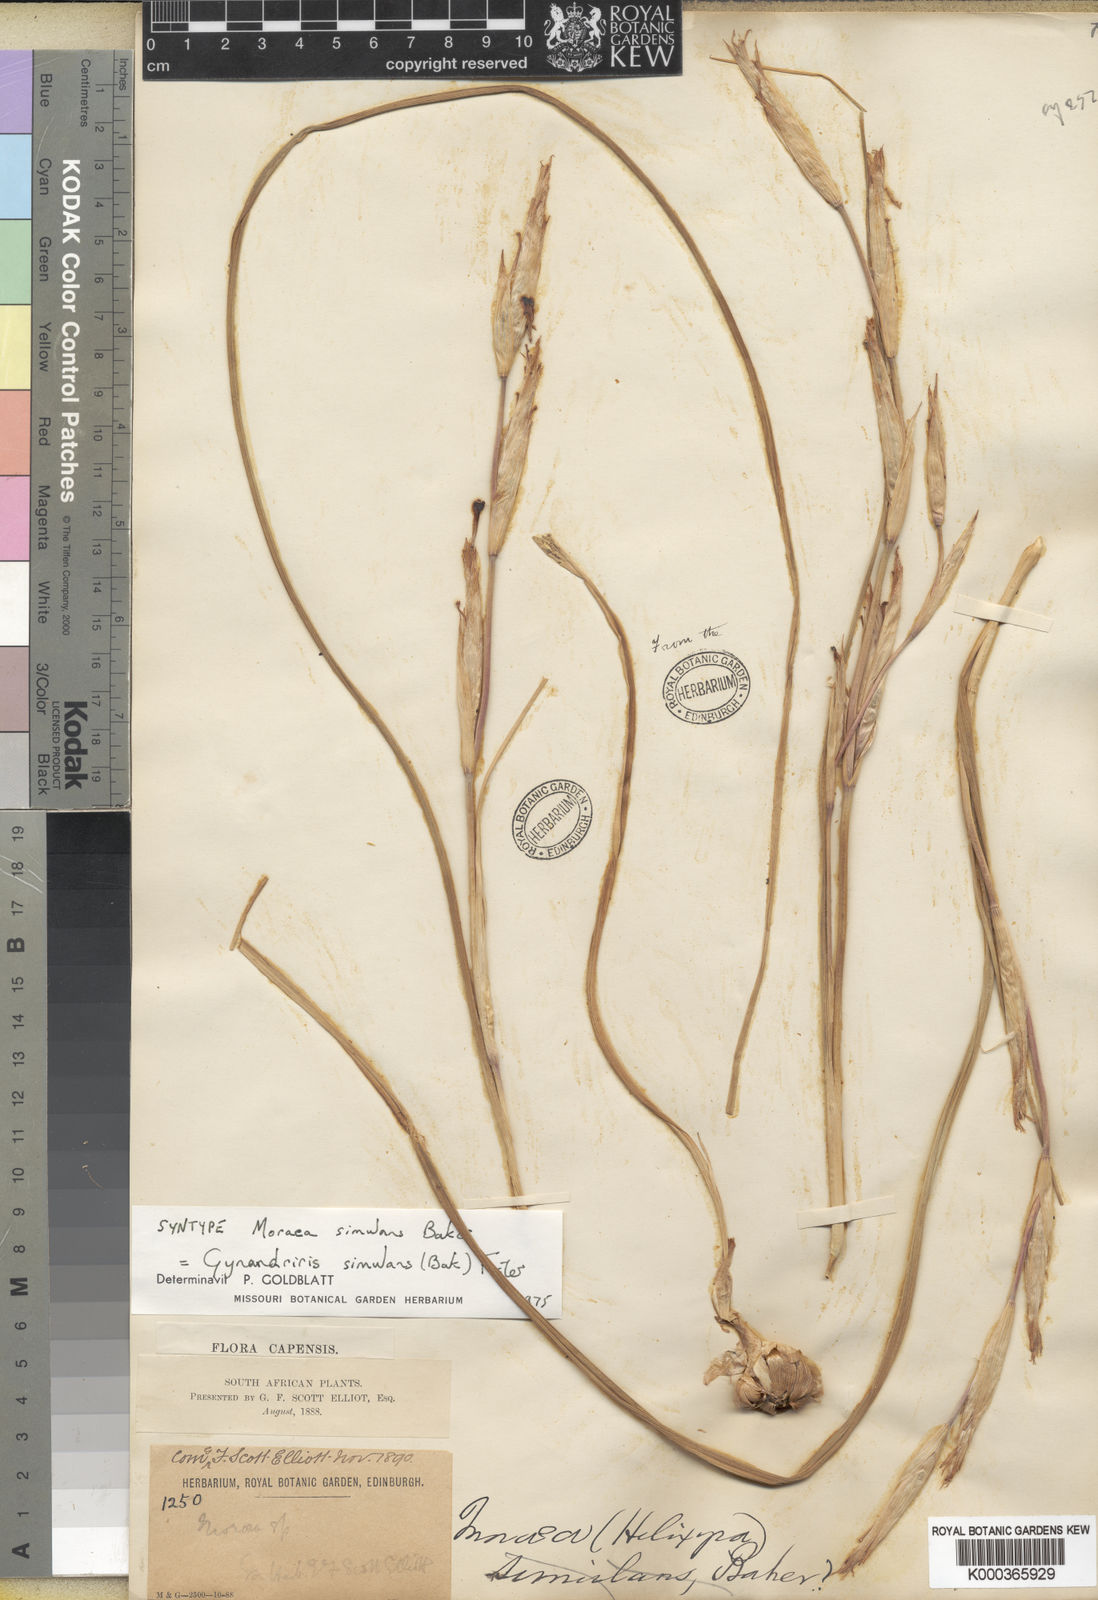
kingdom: Plantae
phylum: Tracheophyta
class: Liliopsida
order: Asparagales
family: Iridaceae
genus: Moraea
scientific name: Moraea simulans
